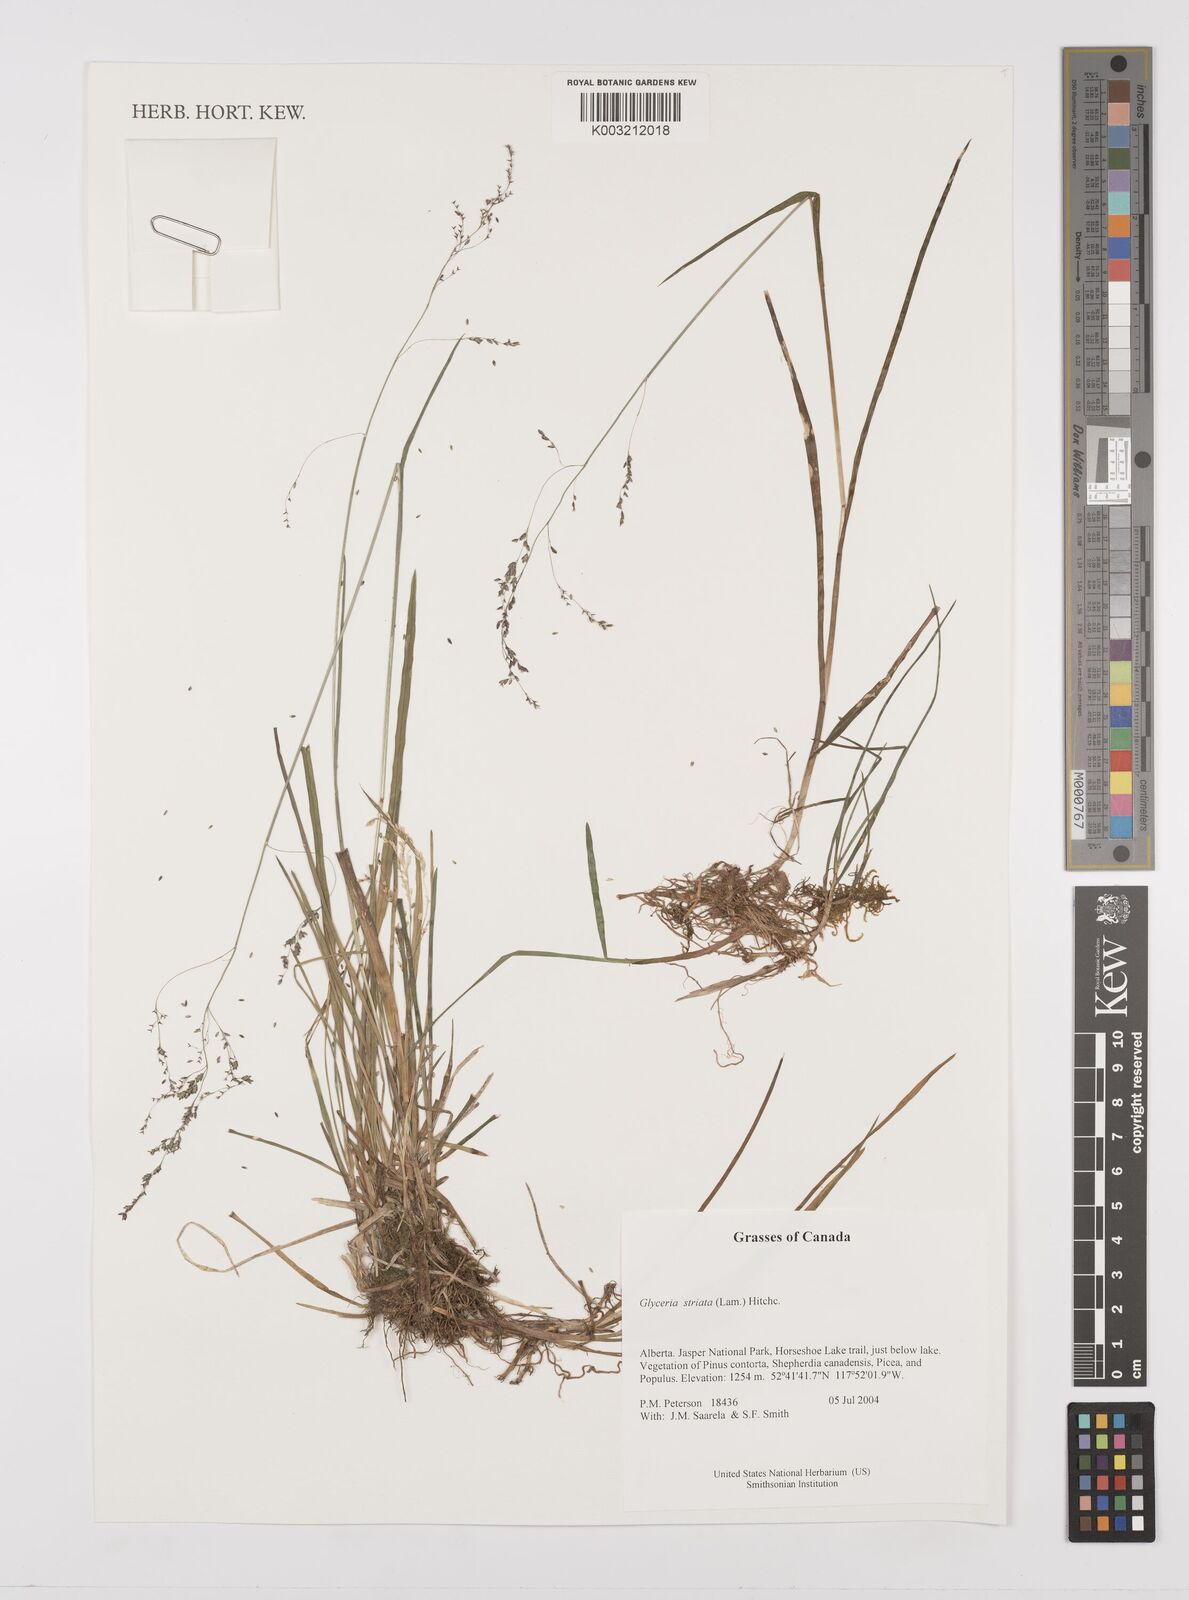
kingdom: Plantae
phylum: Tracheophyta
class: Liliopsida
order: Poales
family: Poaceae
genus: Glyceria
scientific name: Glyceria striata
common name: Fowl manna grass
